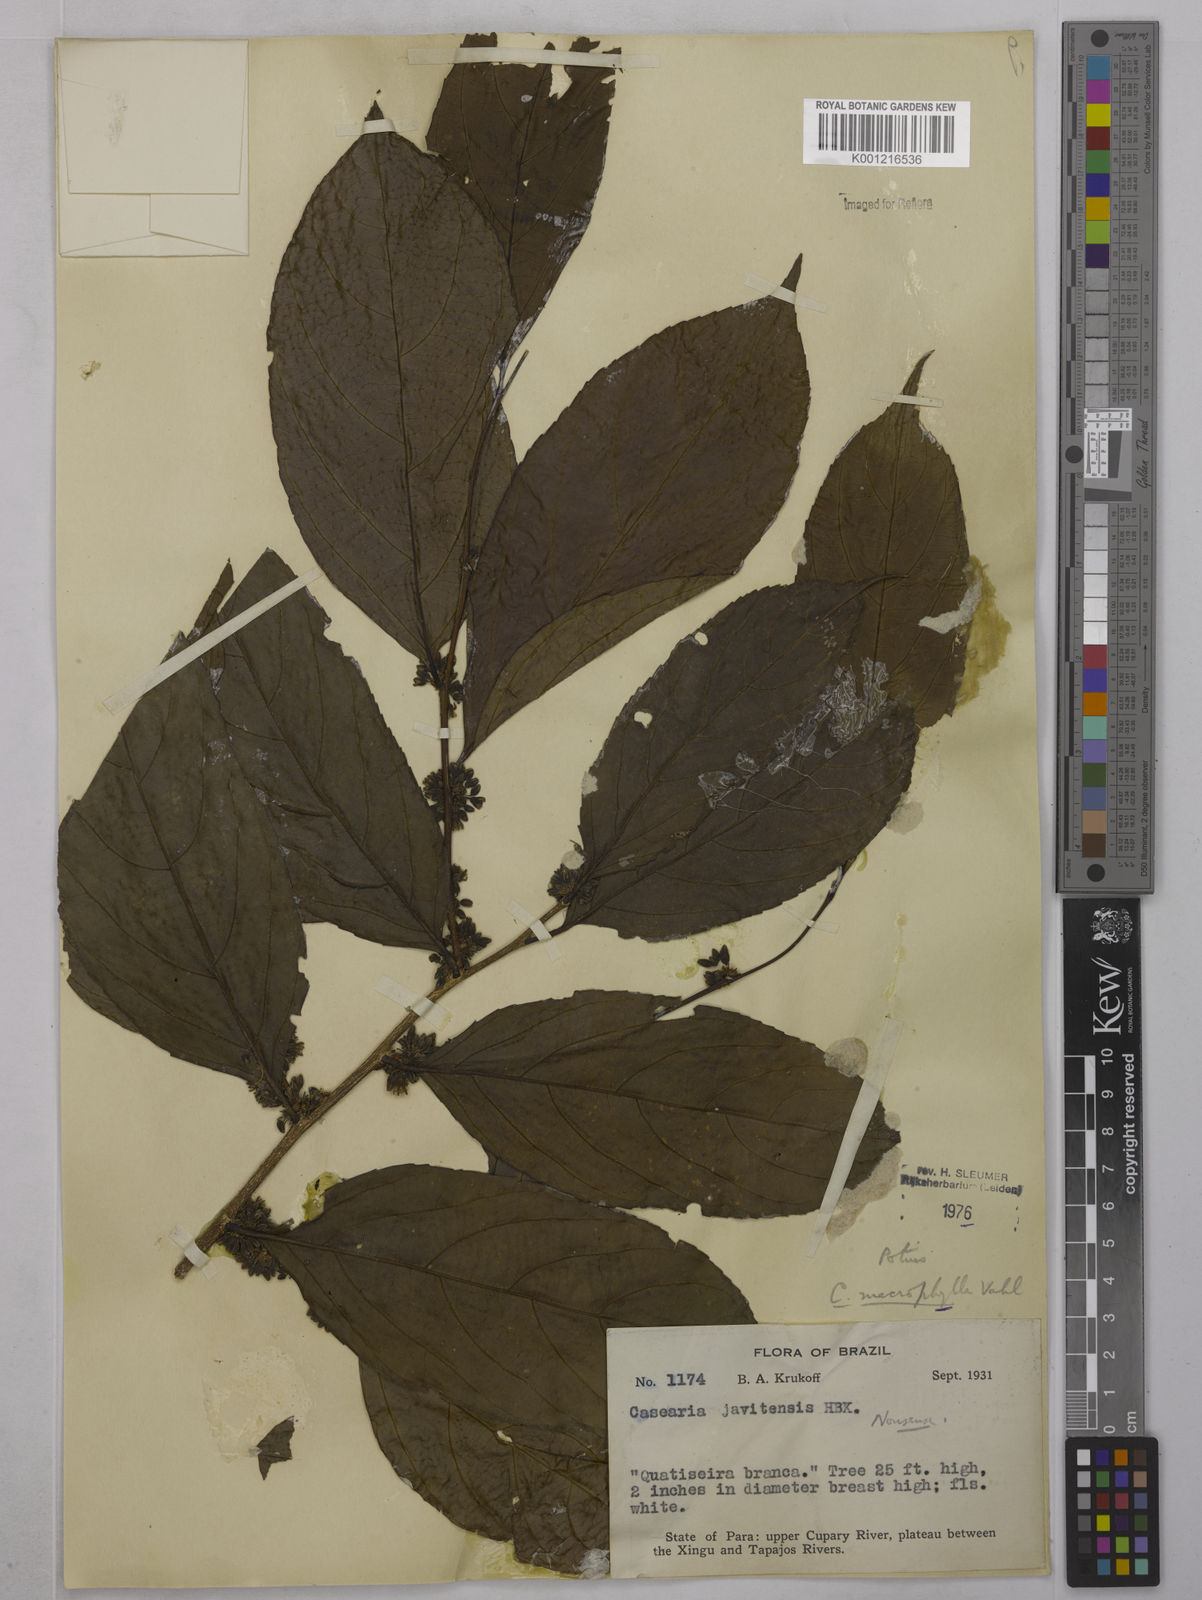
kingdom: Plantae
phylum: Tracheophyta
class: Magnoliopsida
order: Malpighiales
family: Salicaceae
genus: Casearia
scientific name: Casearia pitumba
